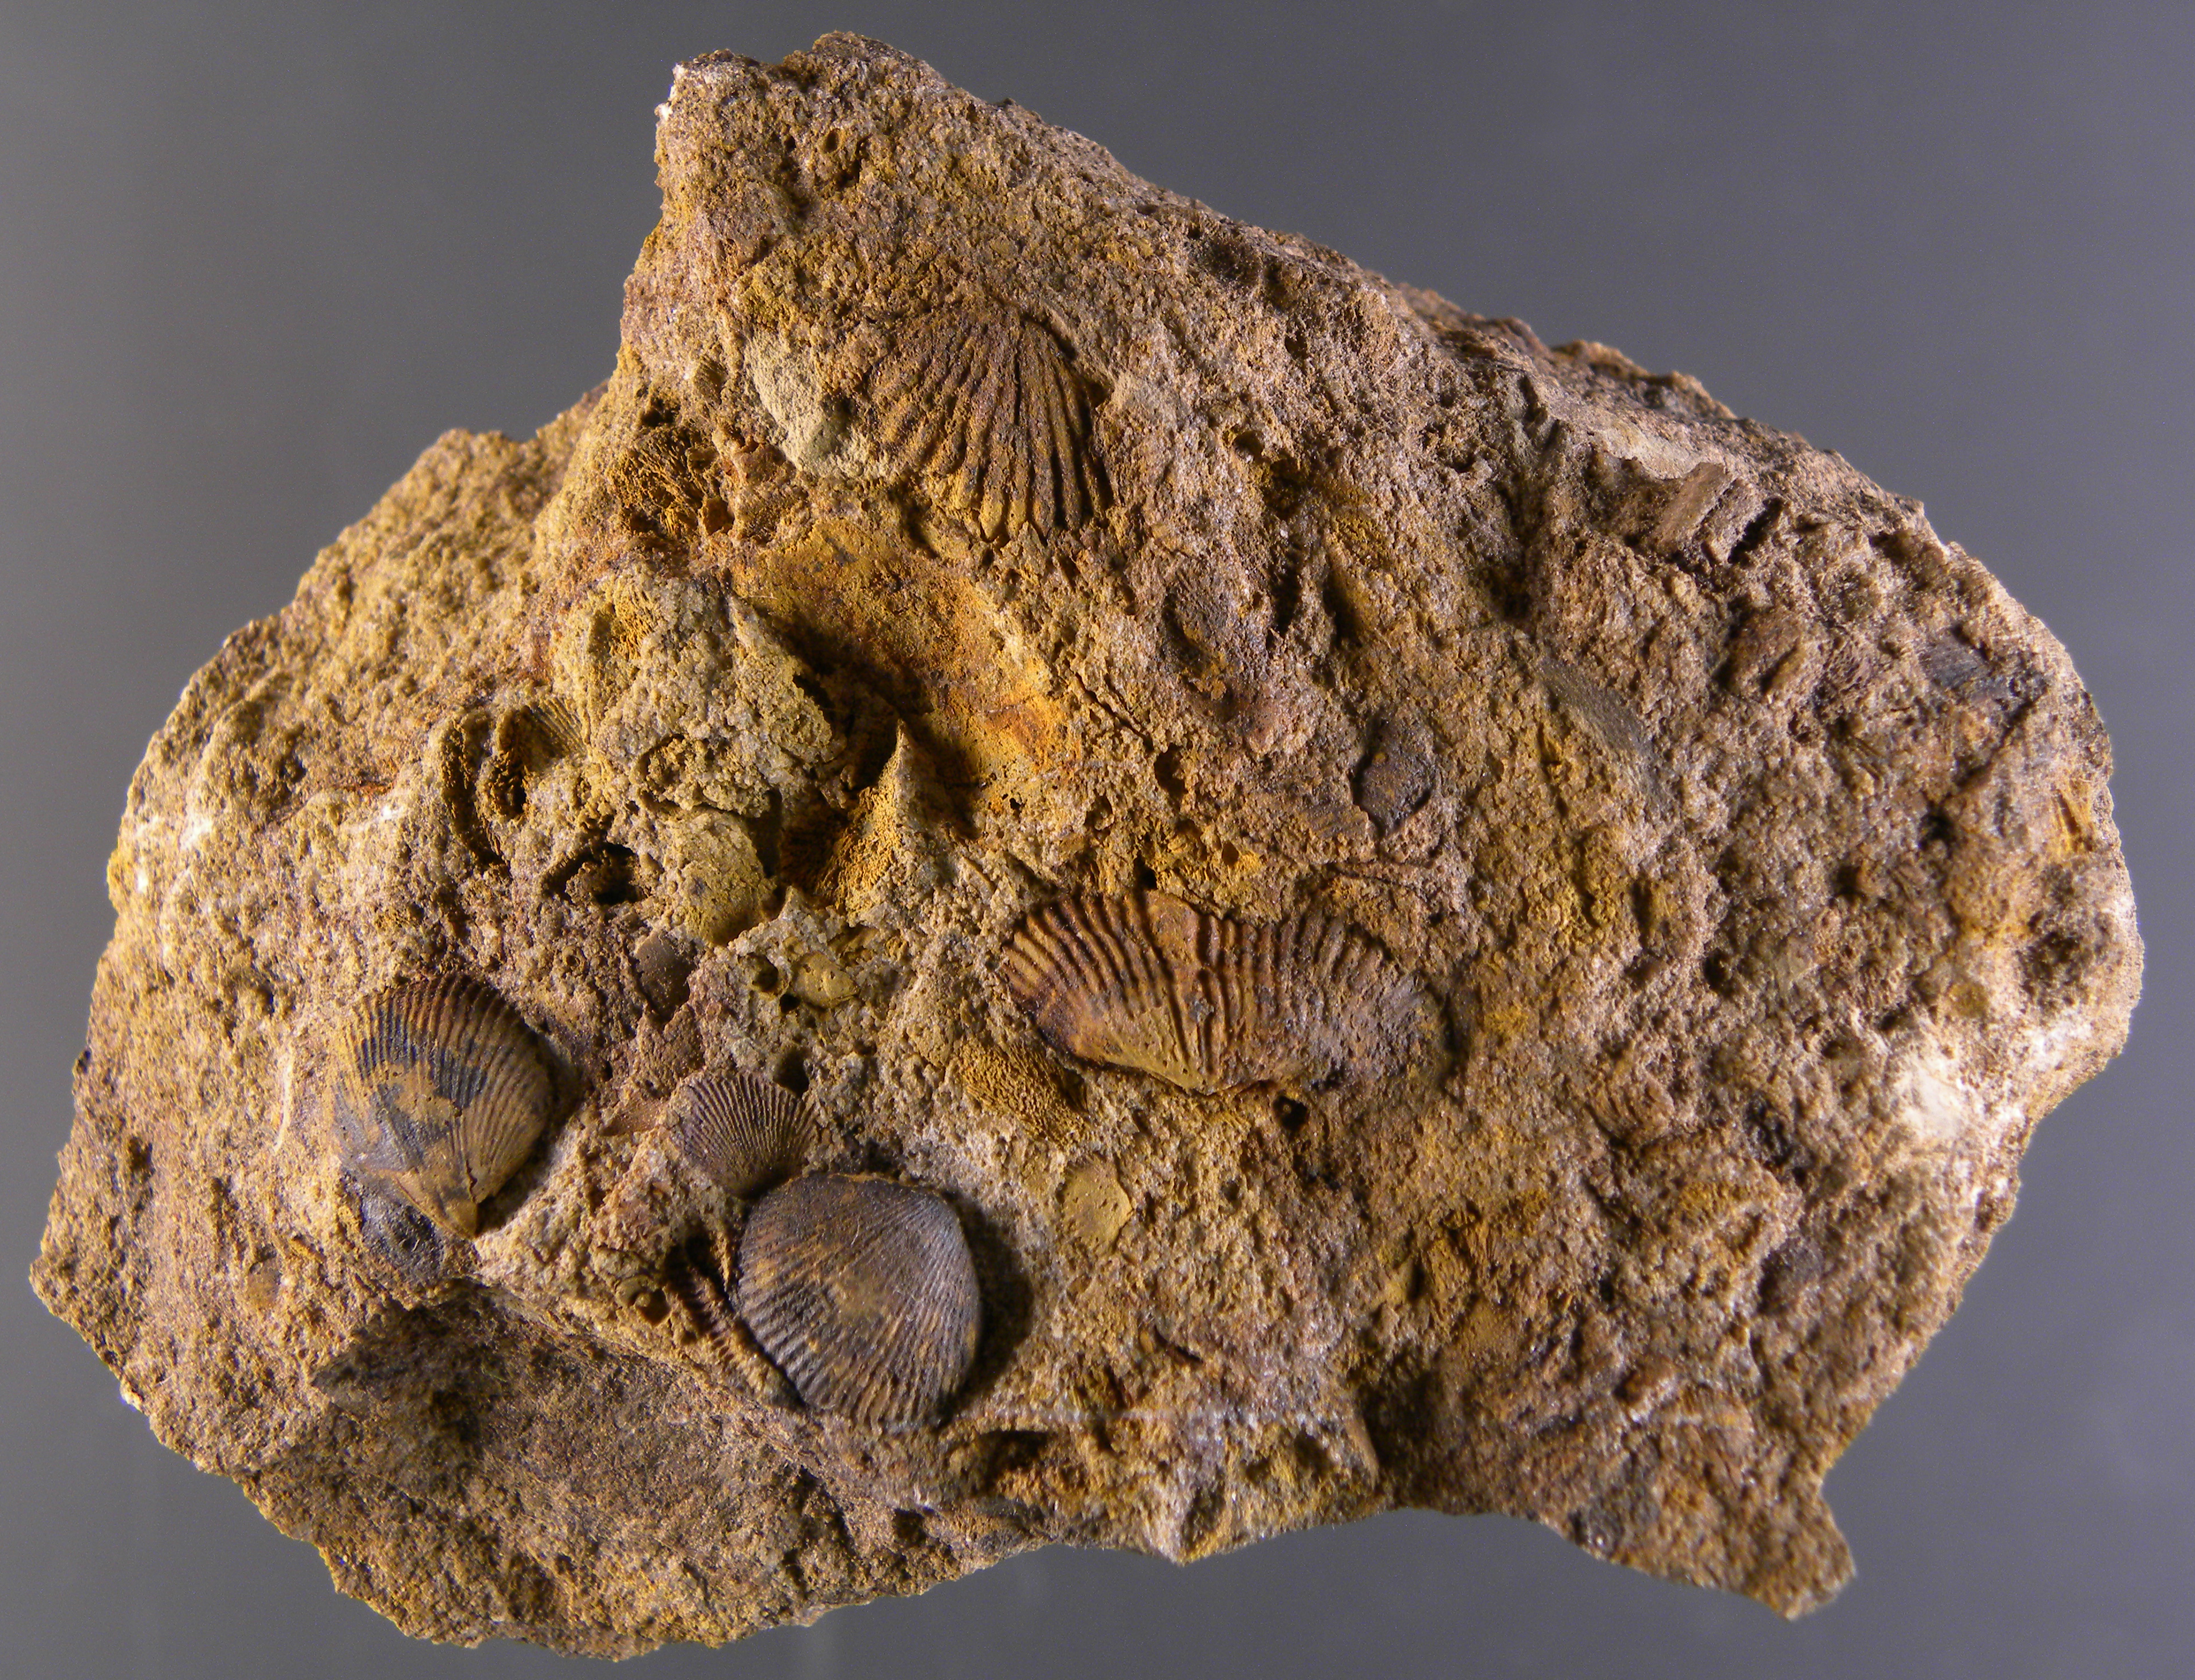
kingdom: Animalia
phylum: Brachiopoda
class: Rhynchonellata
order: Terebratulida
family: Mutationellidae
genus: Mutationella
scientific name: Mutationella
